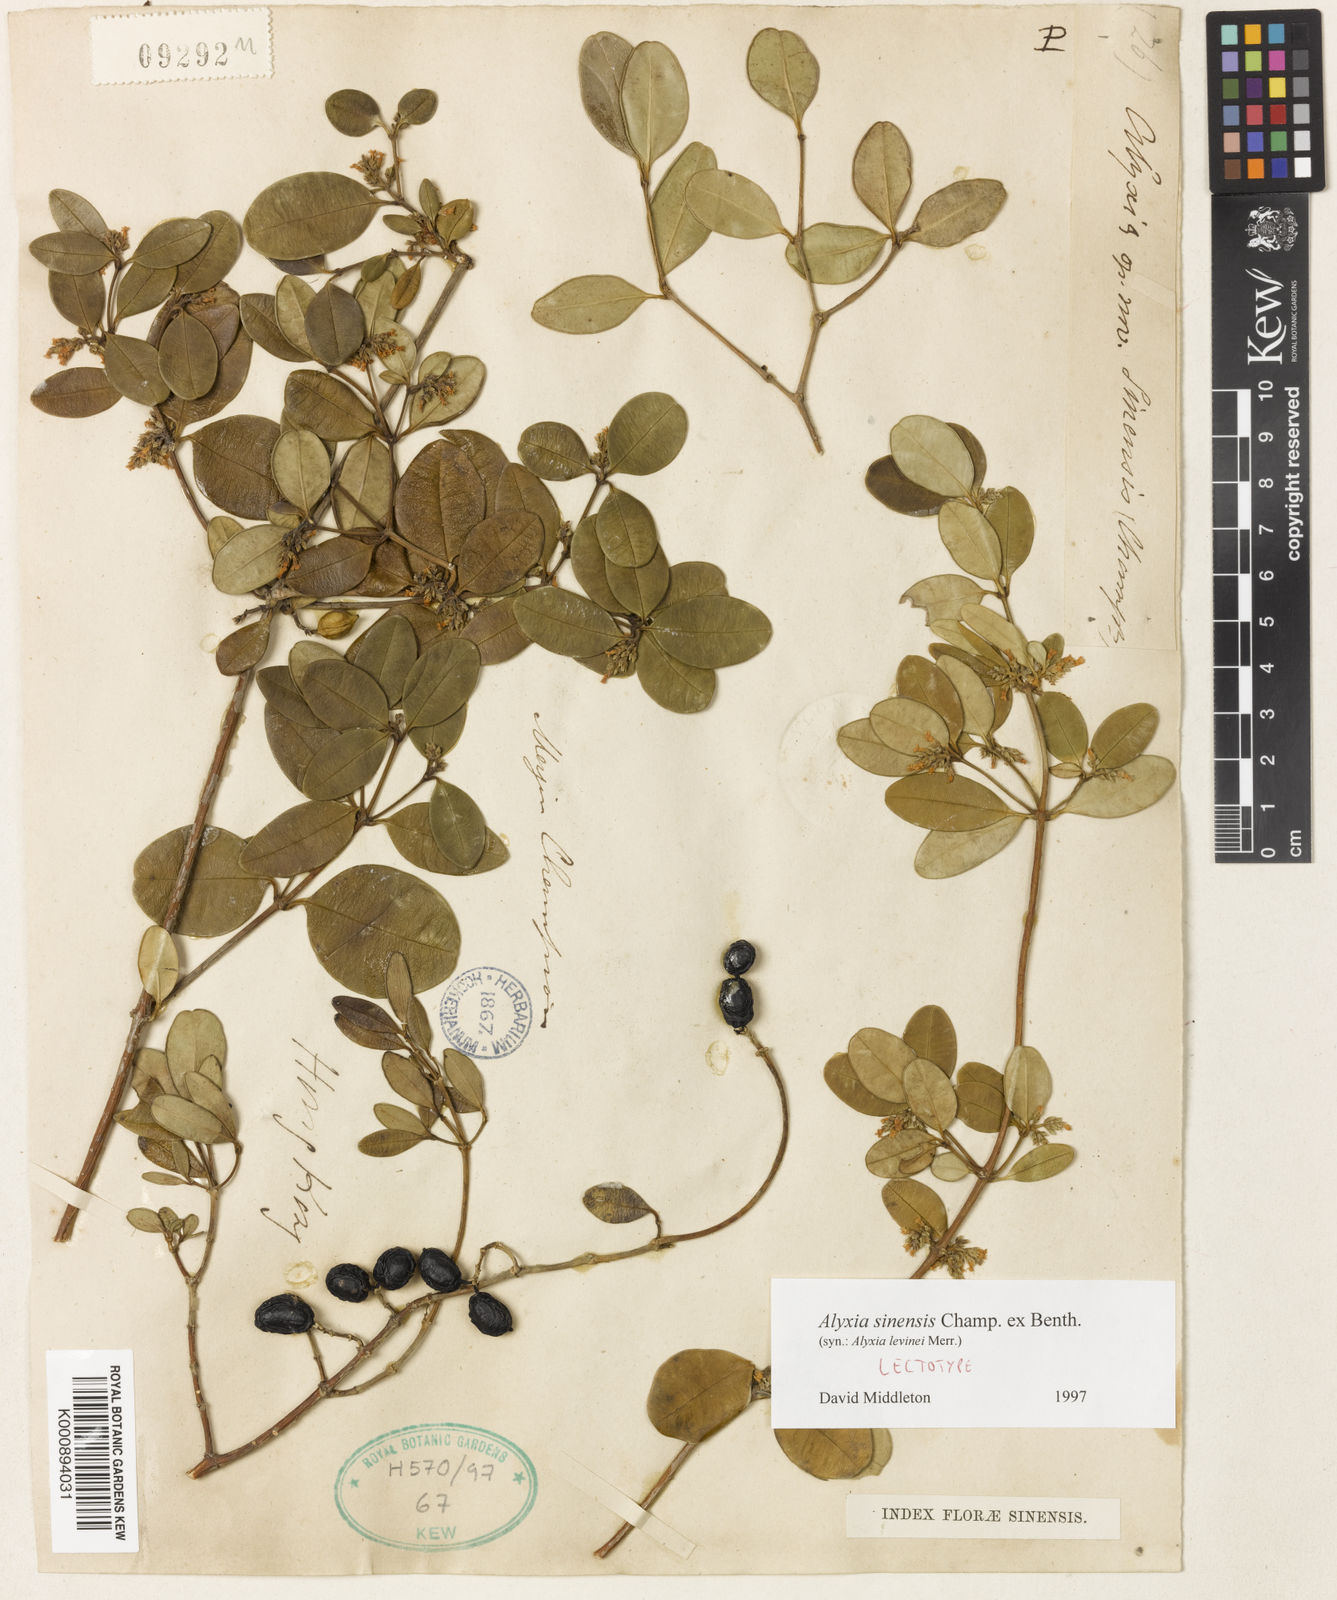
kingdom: Plantae
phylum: Tracheophyta
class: Magnoliopsida
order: Gentianales
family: Apocynaceae
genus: Alyxia
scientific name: Alyxia sinensis
